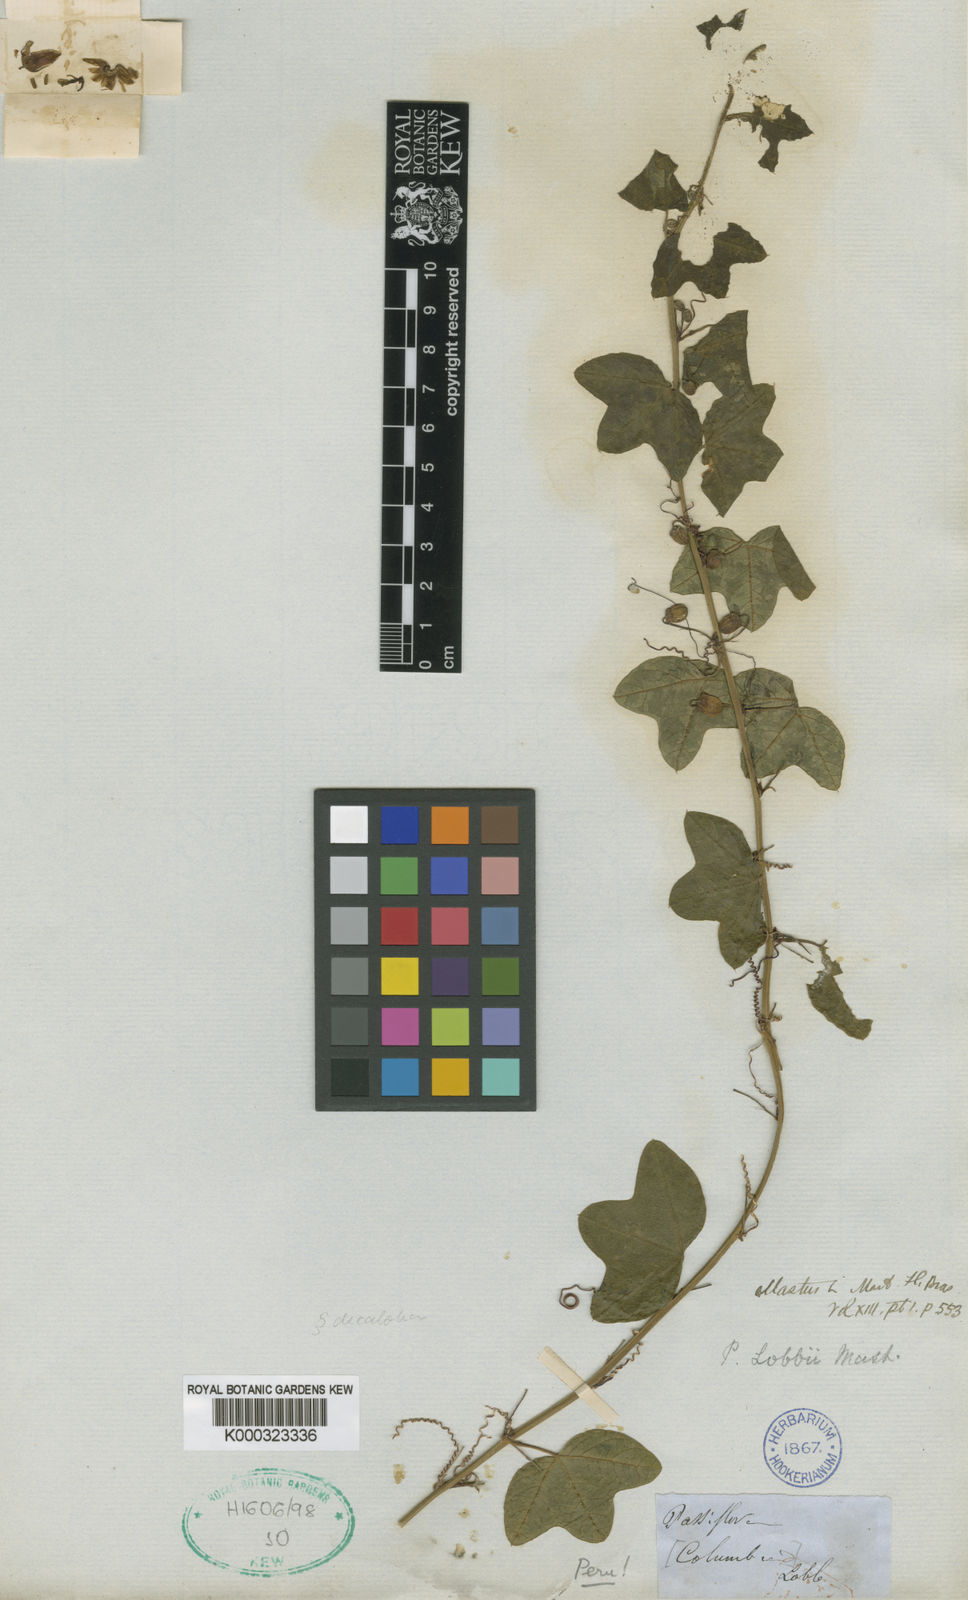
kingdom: Plantae
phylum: Tracheophyta
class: Magnoliopsida
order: Malpighiales
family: Passifloraceae
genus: Passiflora
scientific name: Passiflora lobbii
